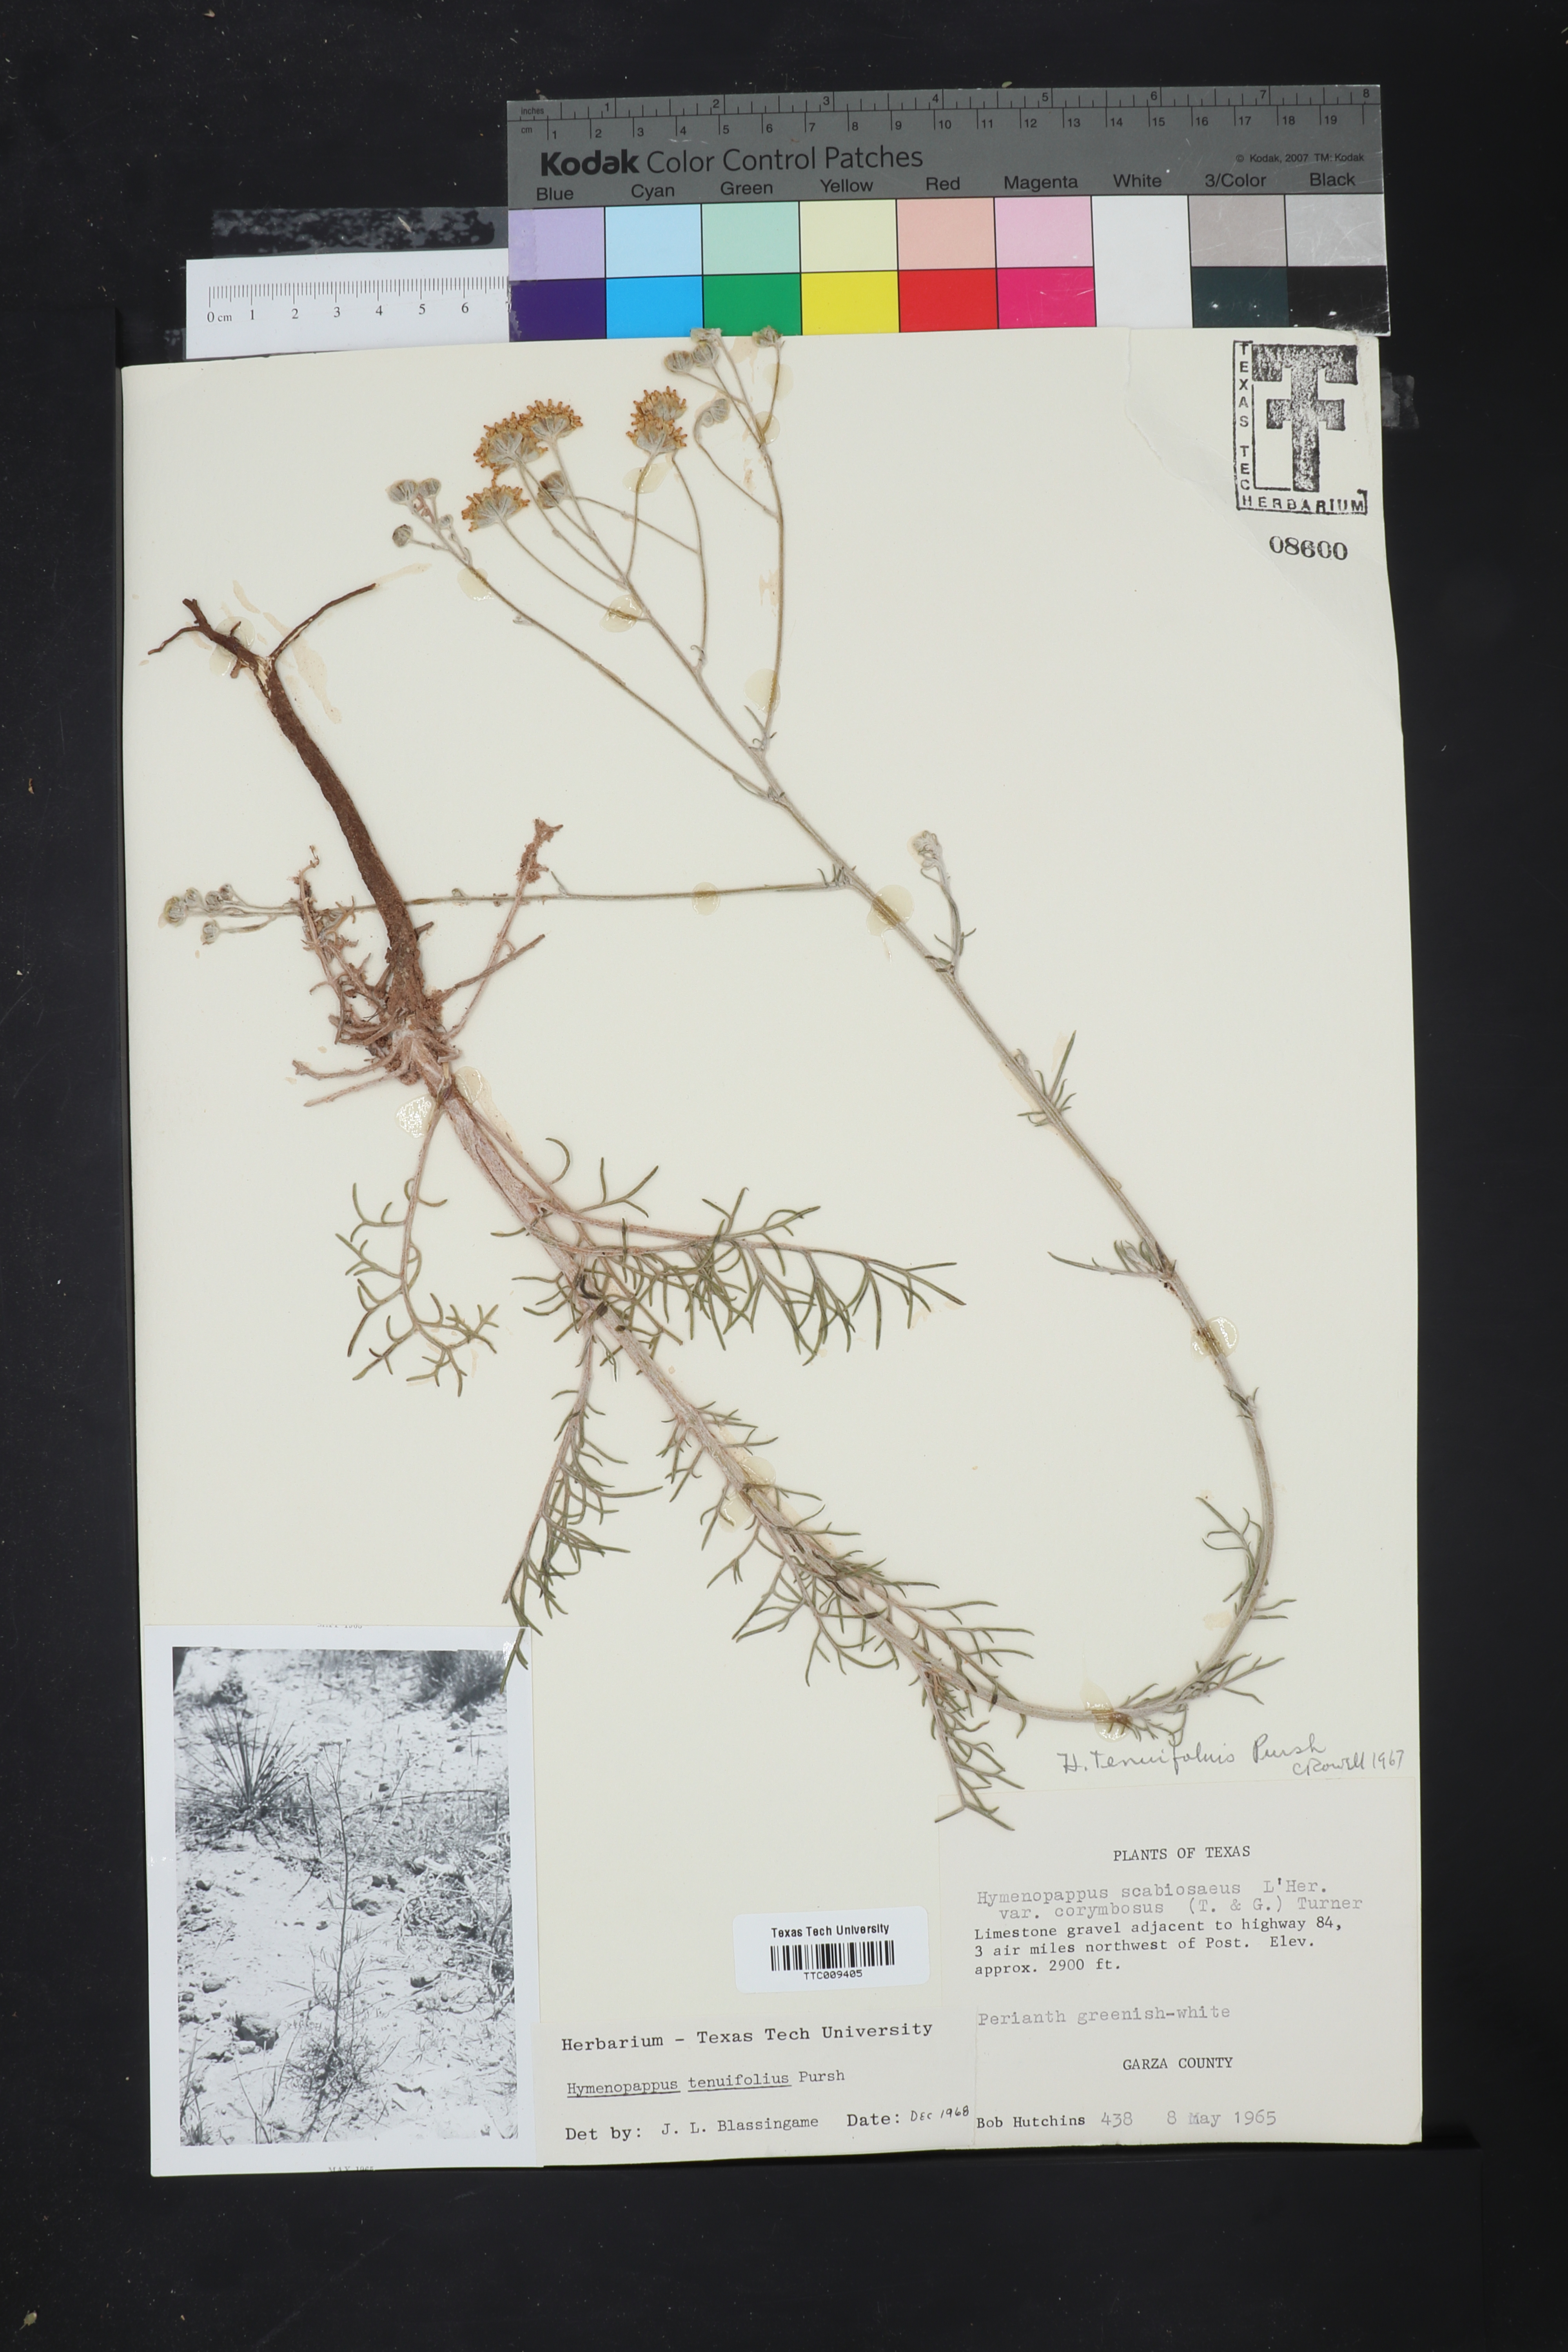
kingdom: Plantae
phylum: Tracheophyta
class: Magnoliopsida
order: Asterales
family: Asteraceae
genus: Hymenopappus
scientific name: Hymenopappus tenuifolius
